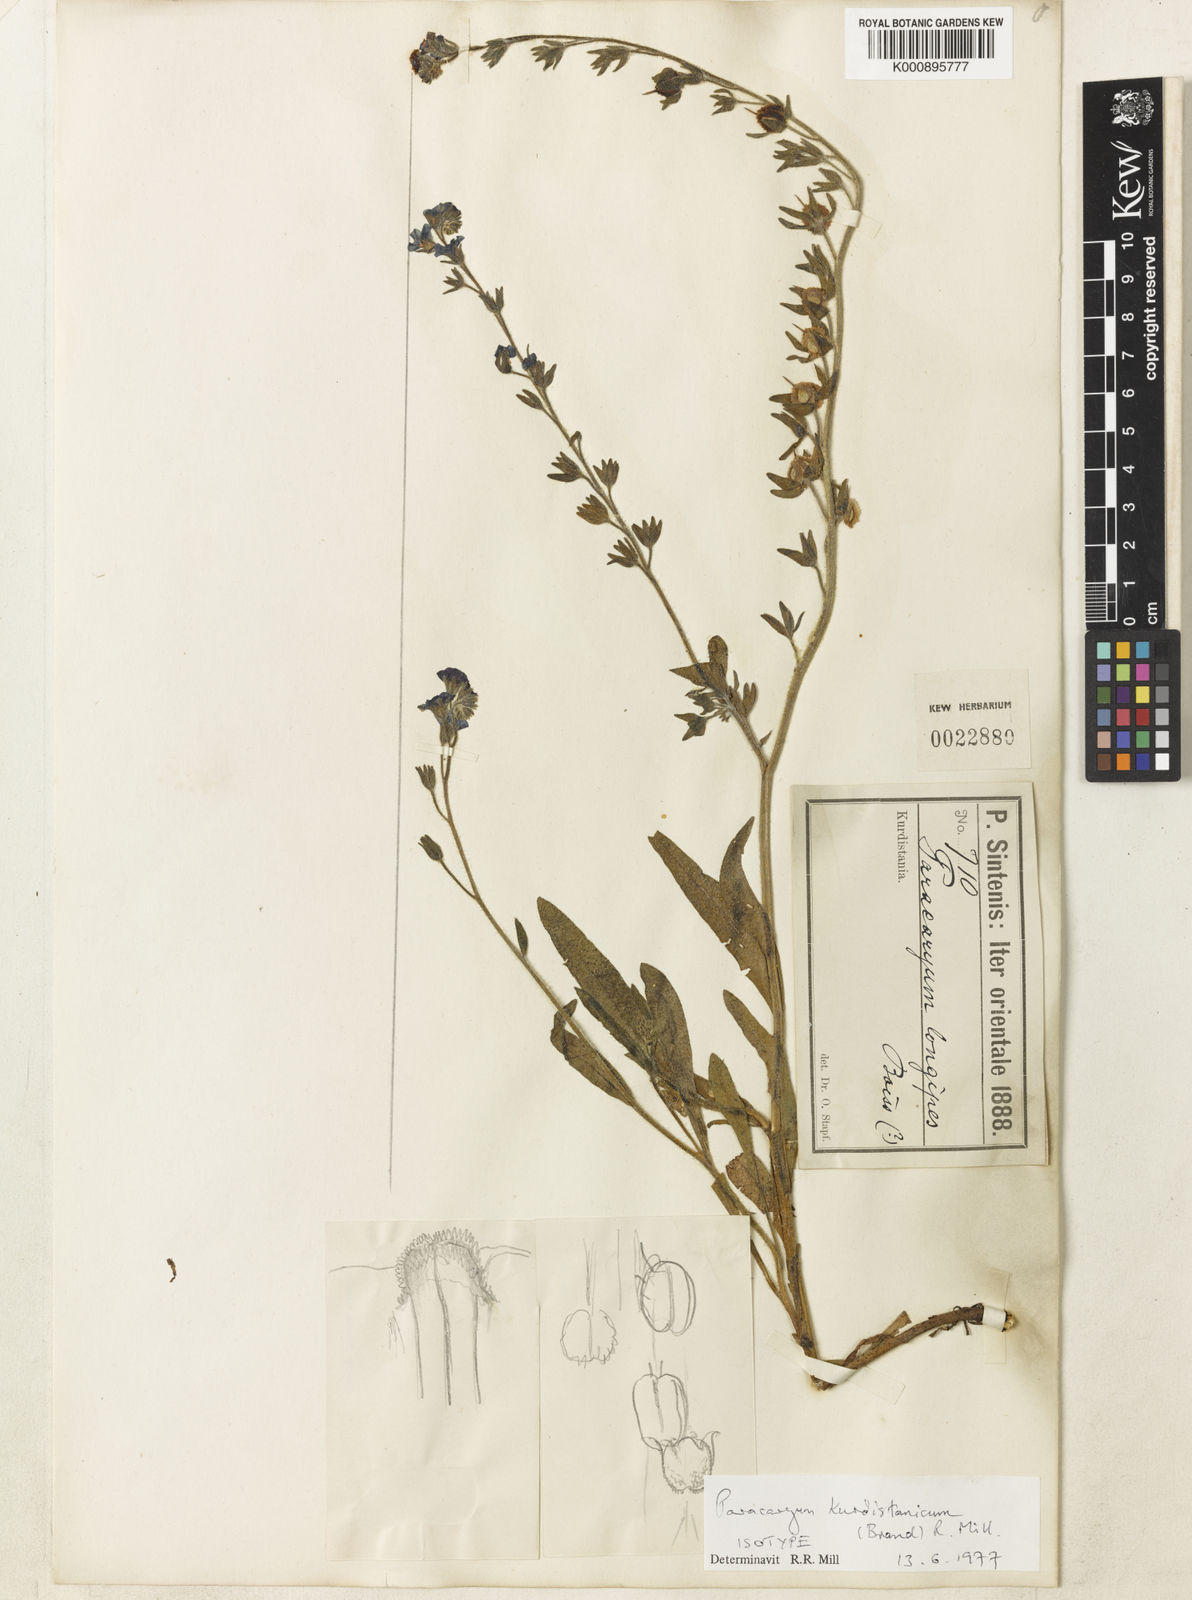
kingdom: Plantae
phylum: Tracheophyta
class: Magnoliopsida
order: Boraginales
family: Boraginaceae
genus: Paracaryum
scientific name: Paracaryum kurdistanicum
